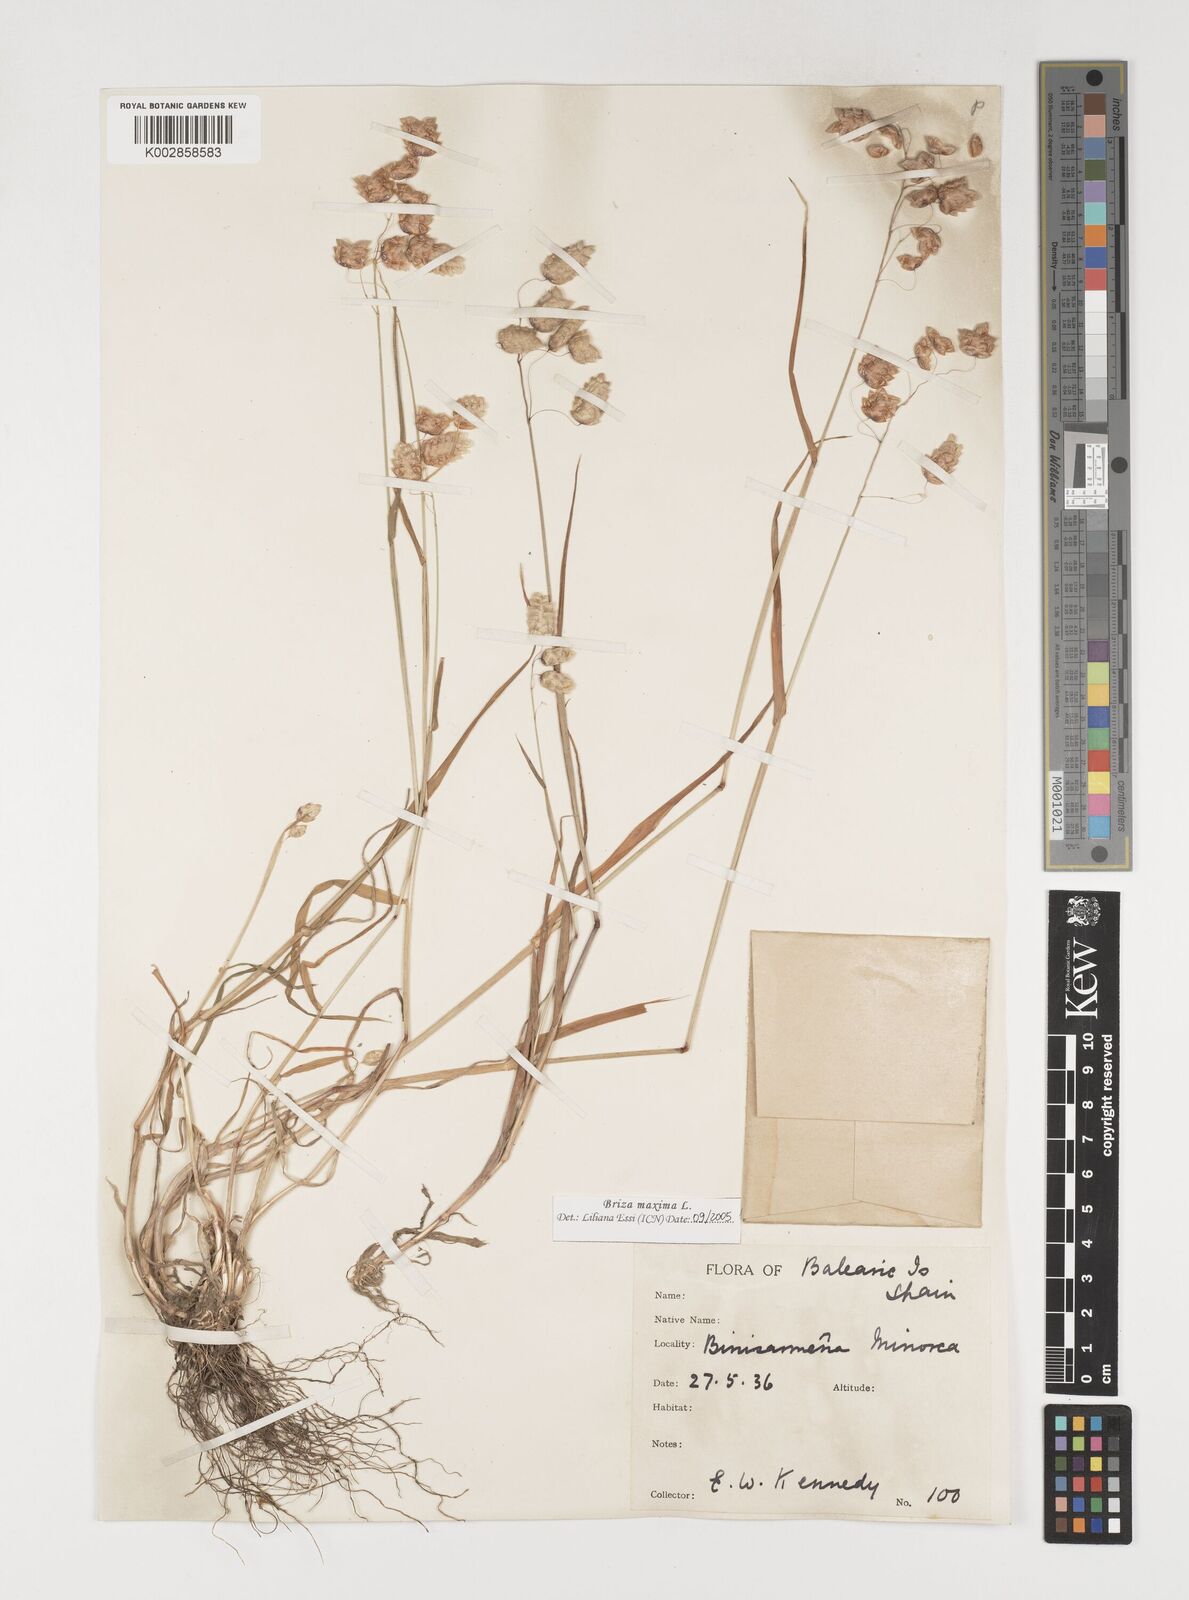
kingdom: Plantae
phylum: Tracheophyta
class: Liliopsida
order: Poales
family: Poaceae
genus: Briza
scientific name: Briza maxima
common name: Big quakinggrass
